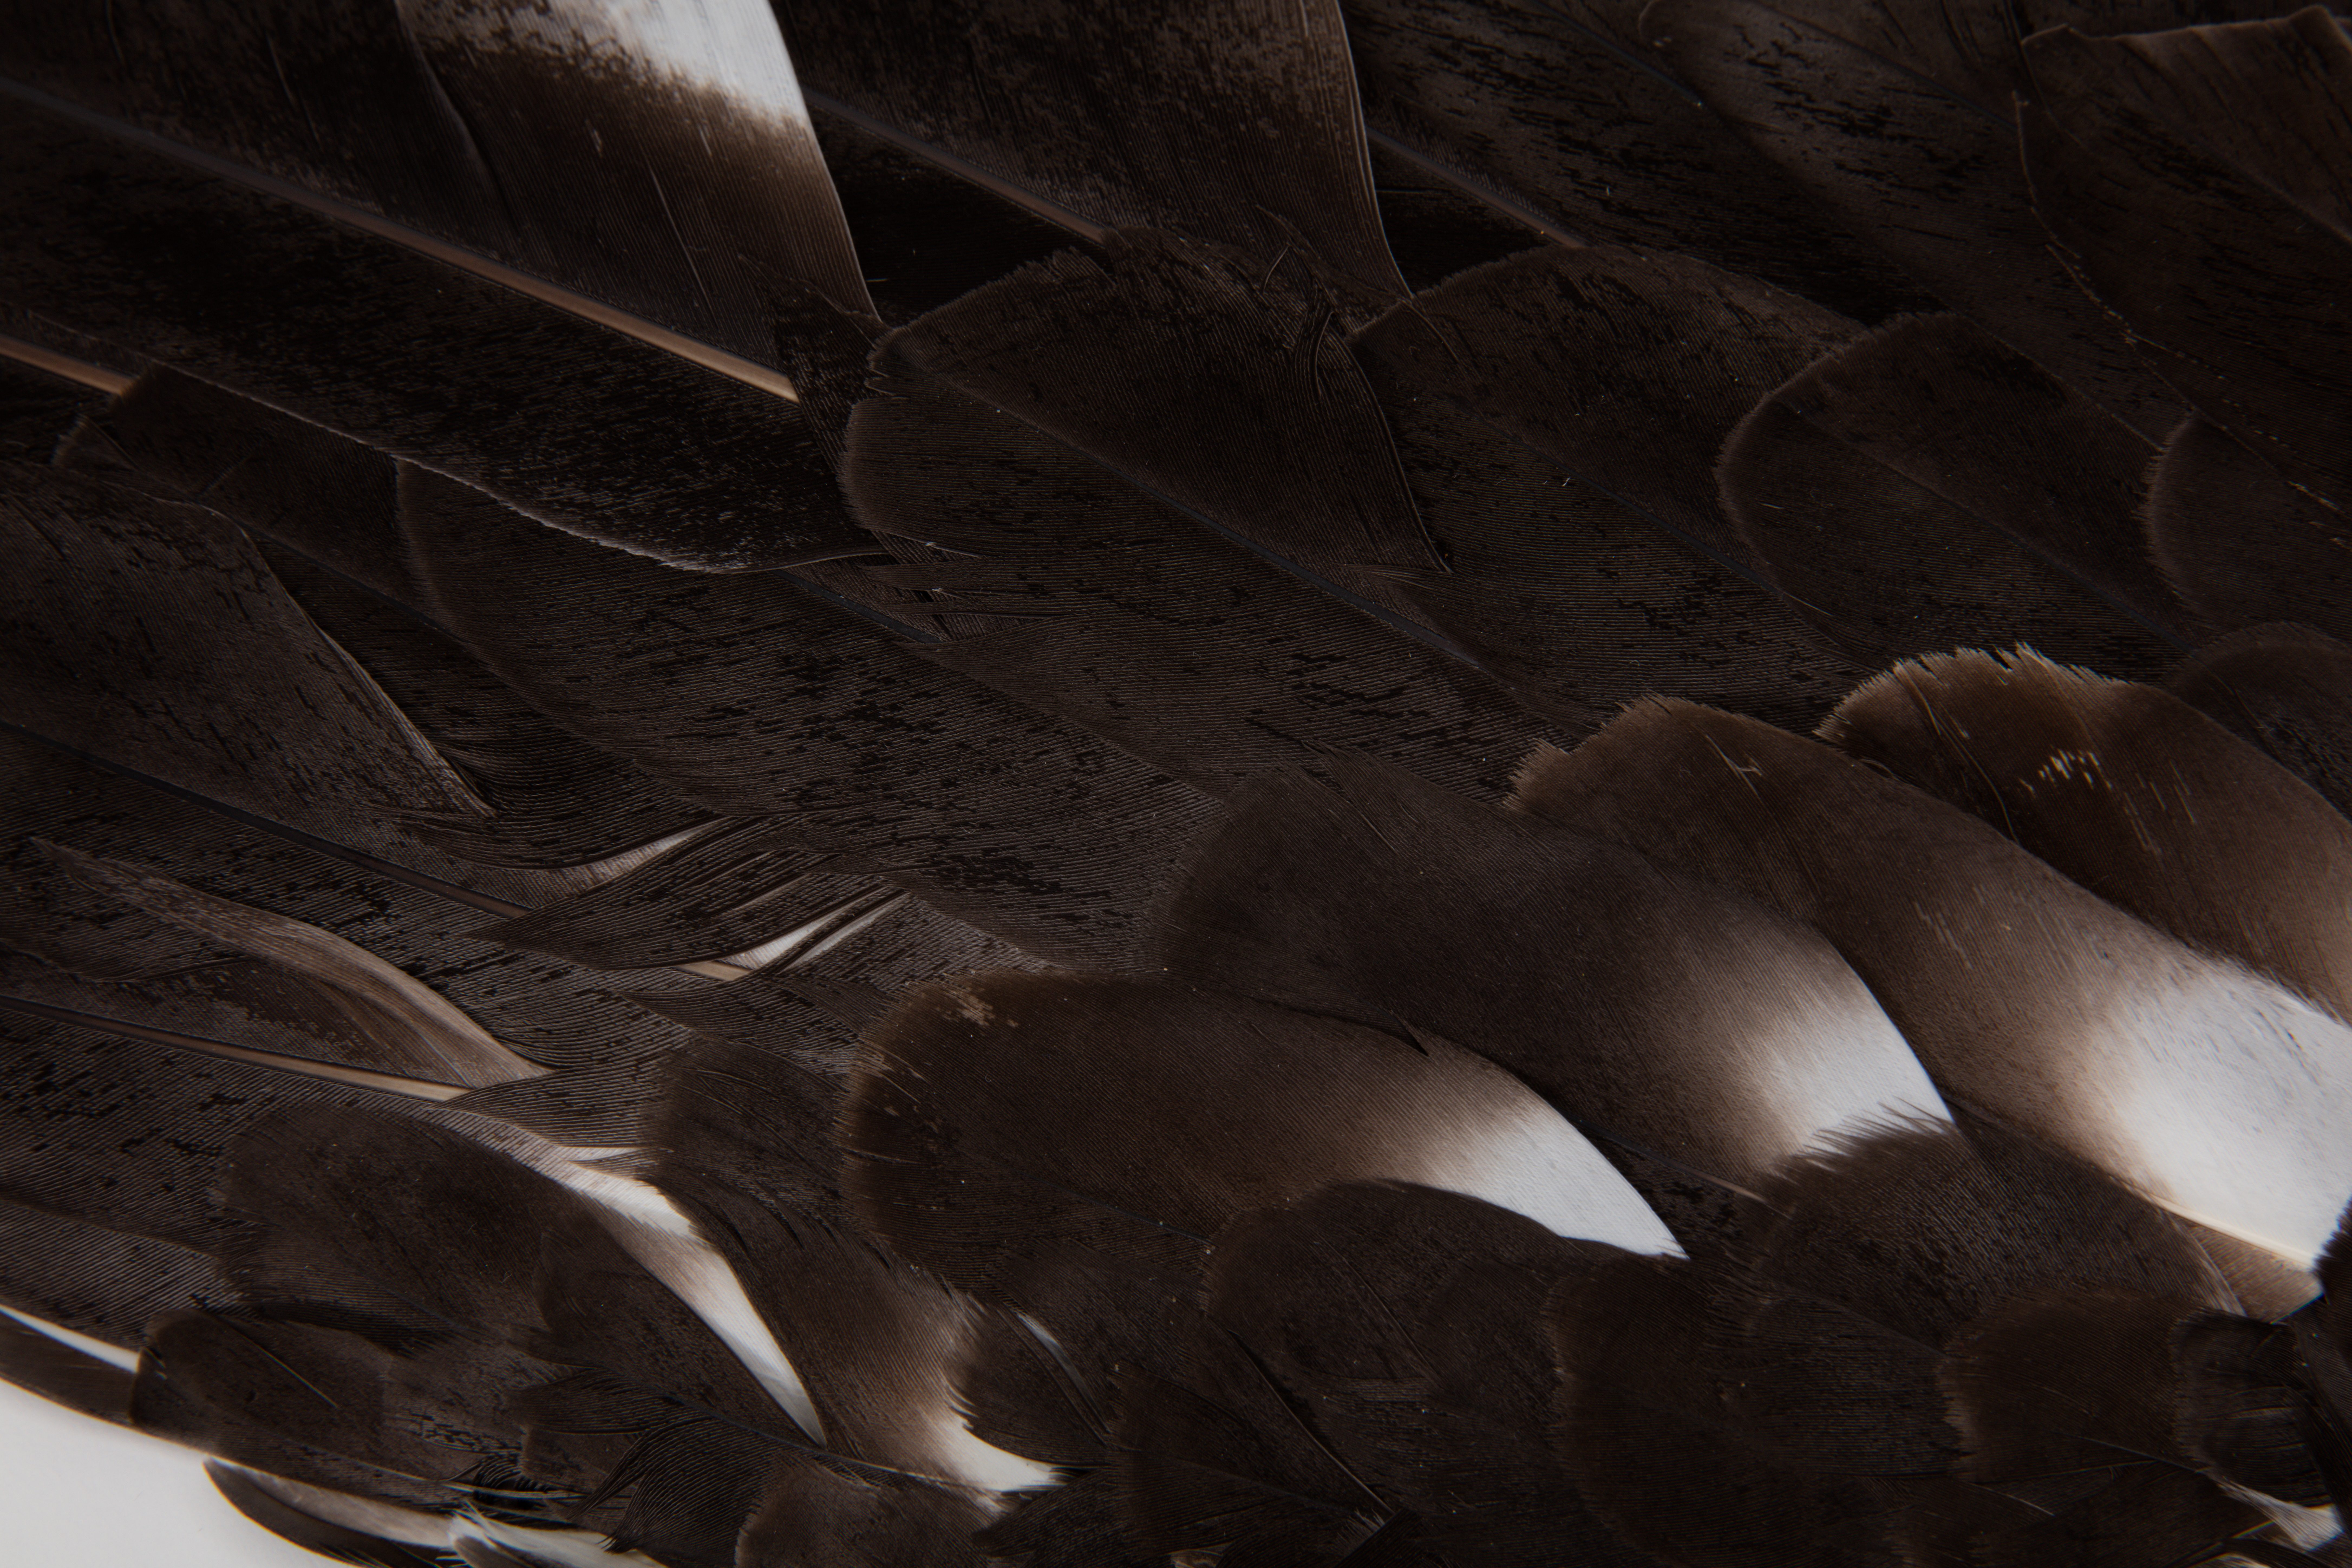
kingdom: Animalia
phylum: Chordata
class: Aves
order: Procellariiformes
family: Diomedeidae
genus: Diomedea
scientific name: Diomedea epomophora
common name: Southern royal albatross
